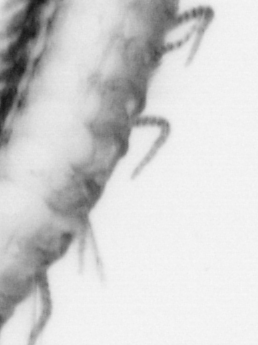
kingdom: Animalia
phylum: Annelida
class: Polychaeta
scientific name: Polychaeta
